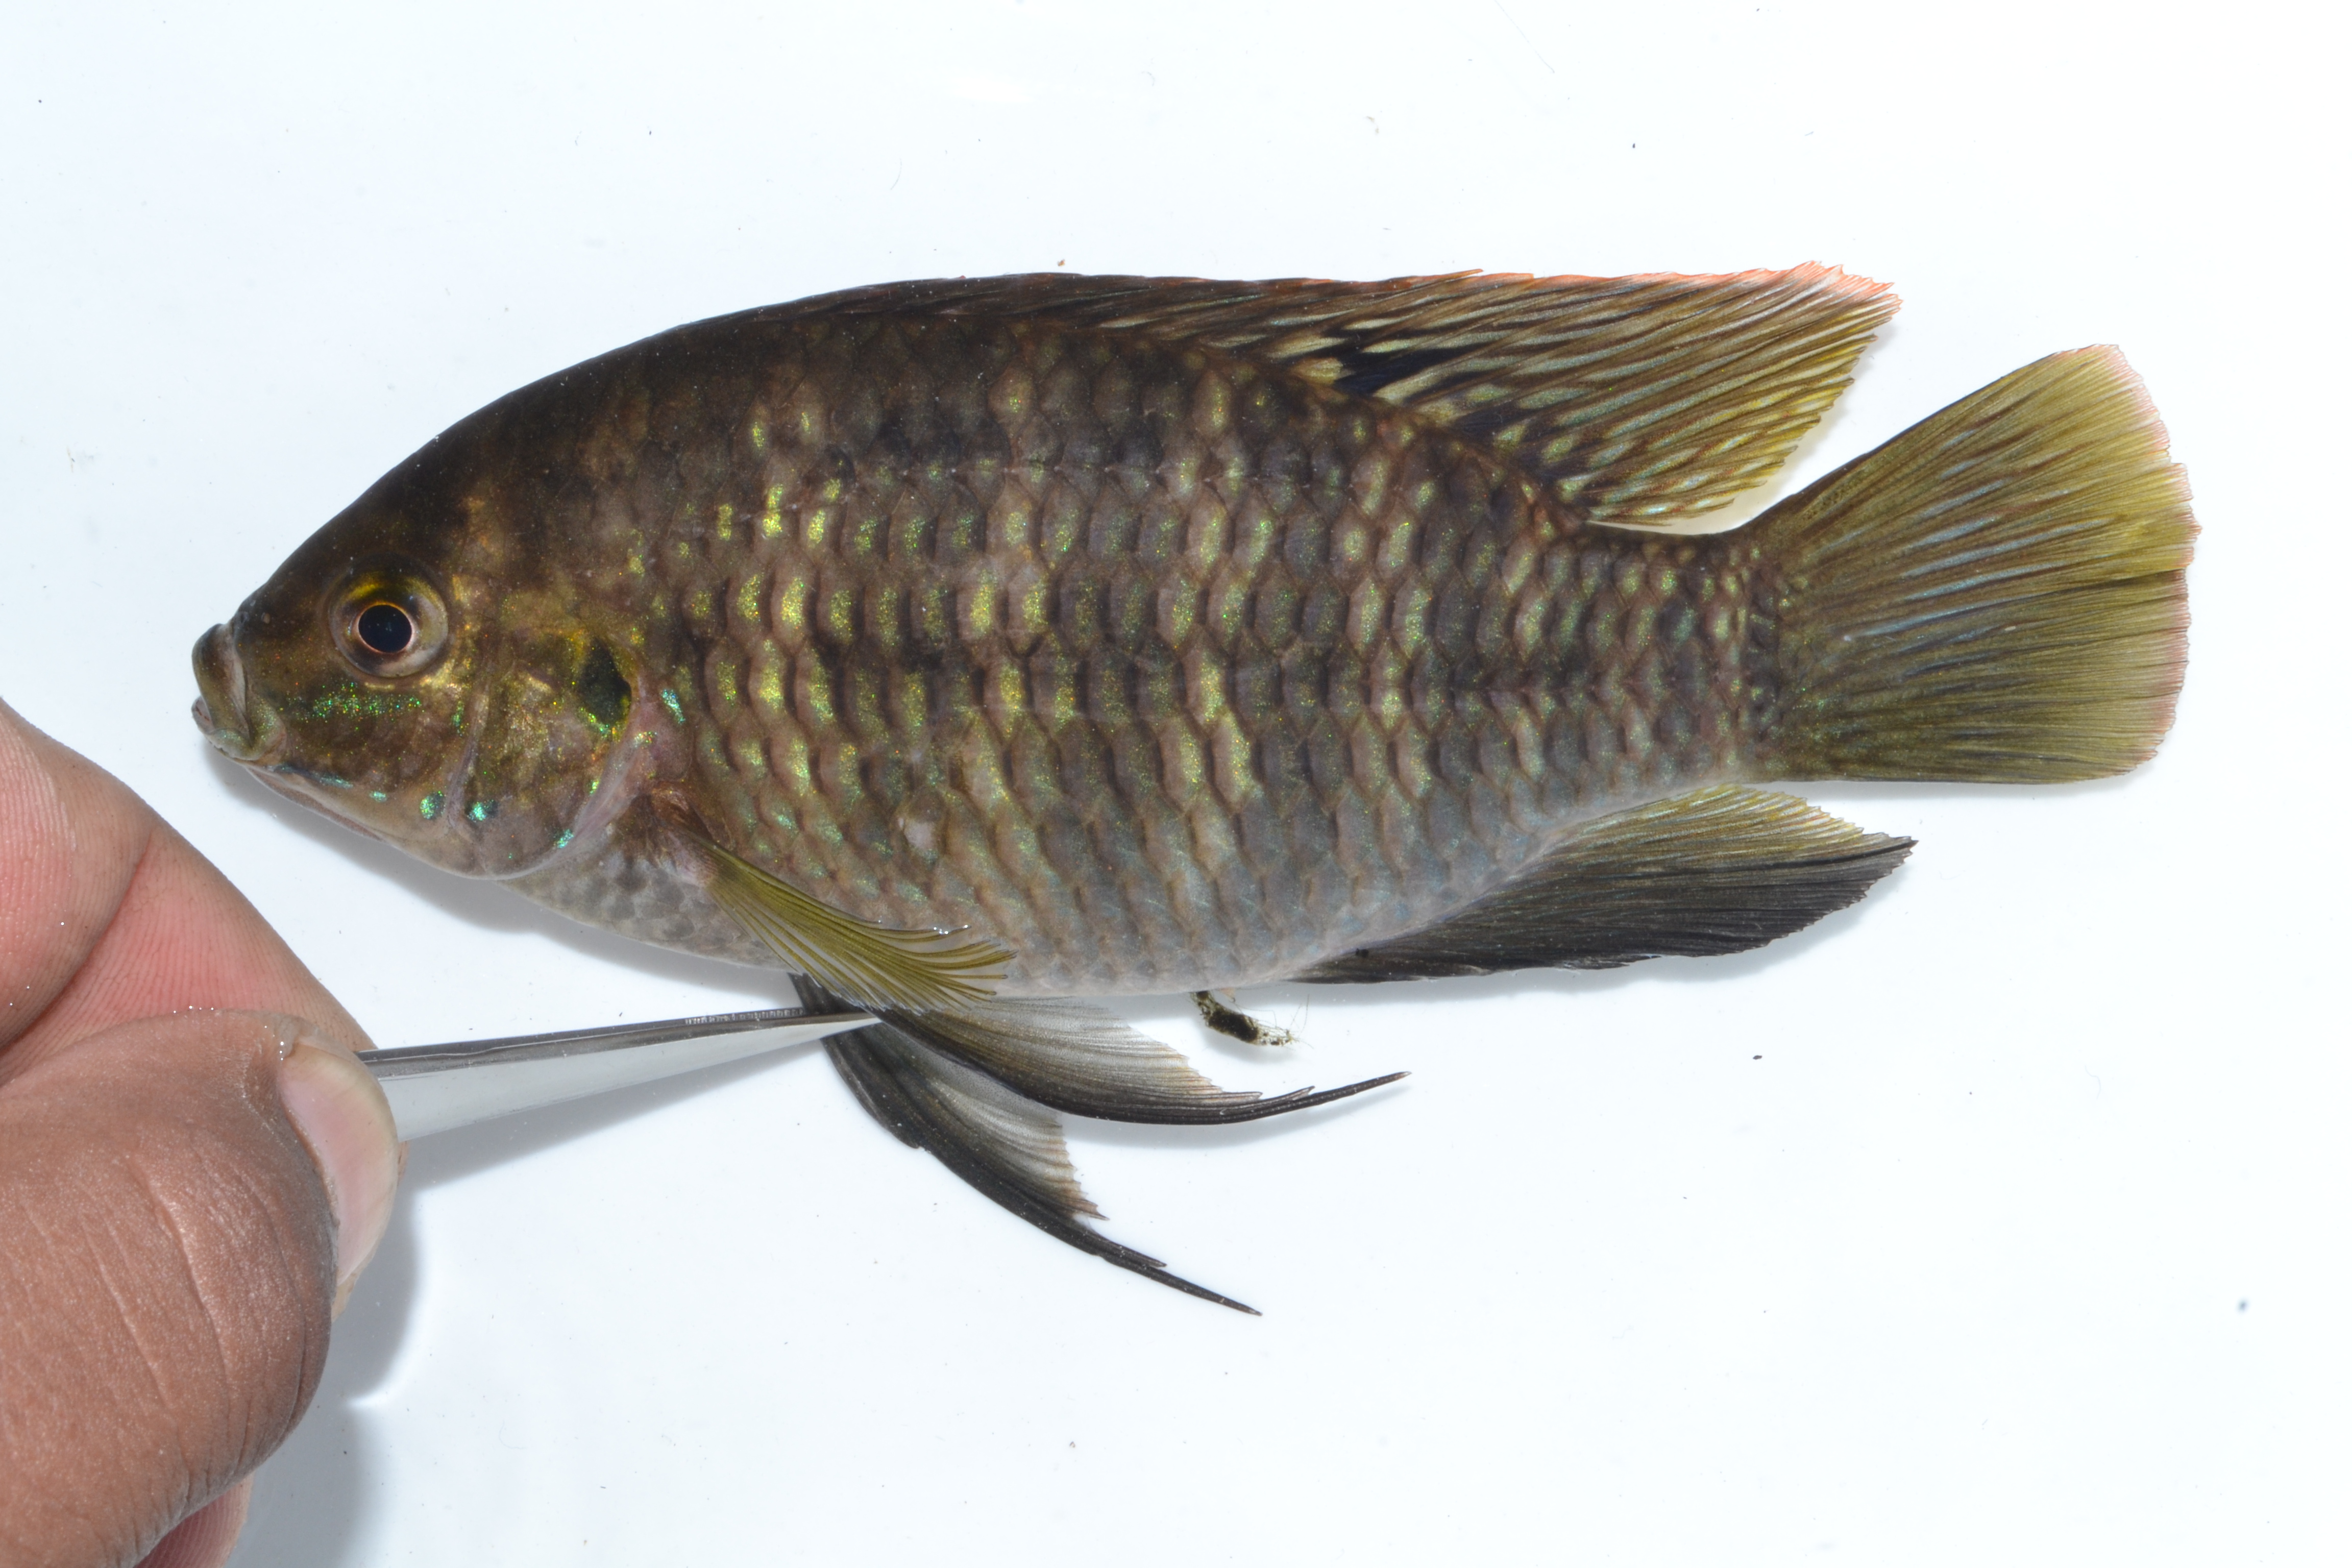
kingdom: Animalia
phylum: Chordata
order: Perciformes
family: Cichlidae
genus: Sargochromis
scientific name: Sargochromis
